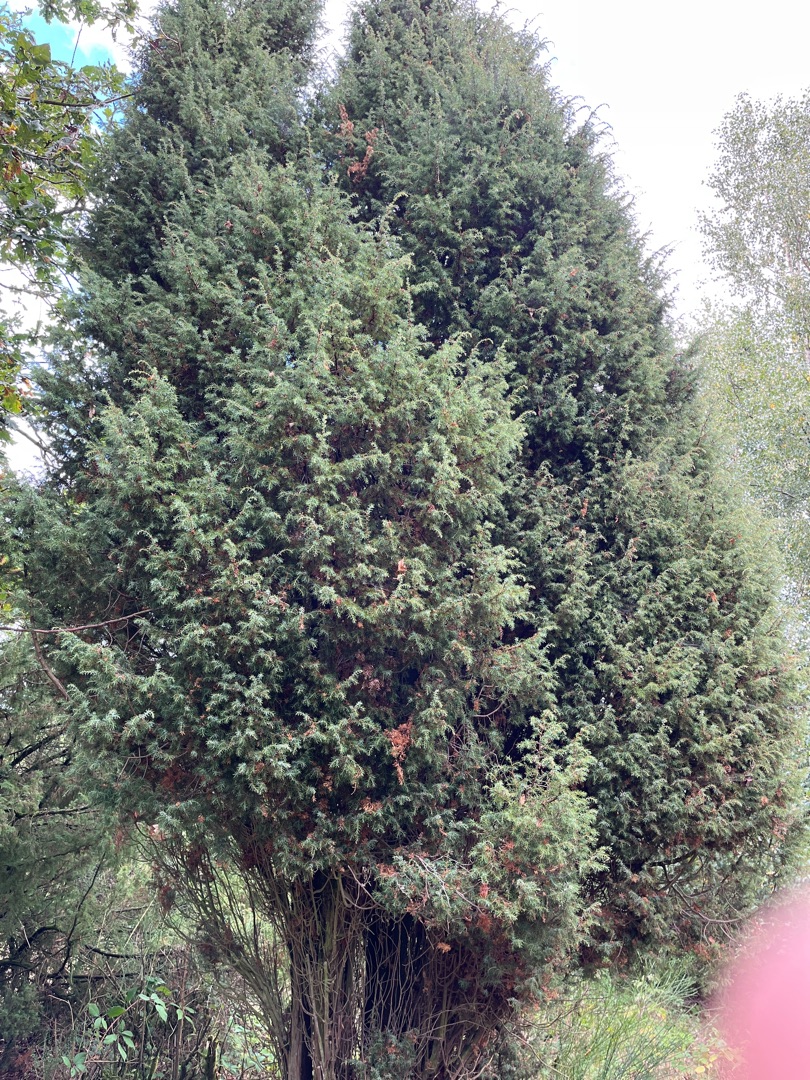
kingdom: Plantae
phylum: Tracheophyta
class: Pinopsida
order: Pinales
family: Cupressaceae
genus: Juniperus
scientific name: Juniperus communis
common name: Almindelig ene
